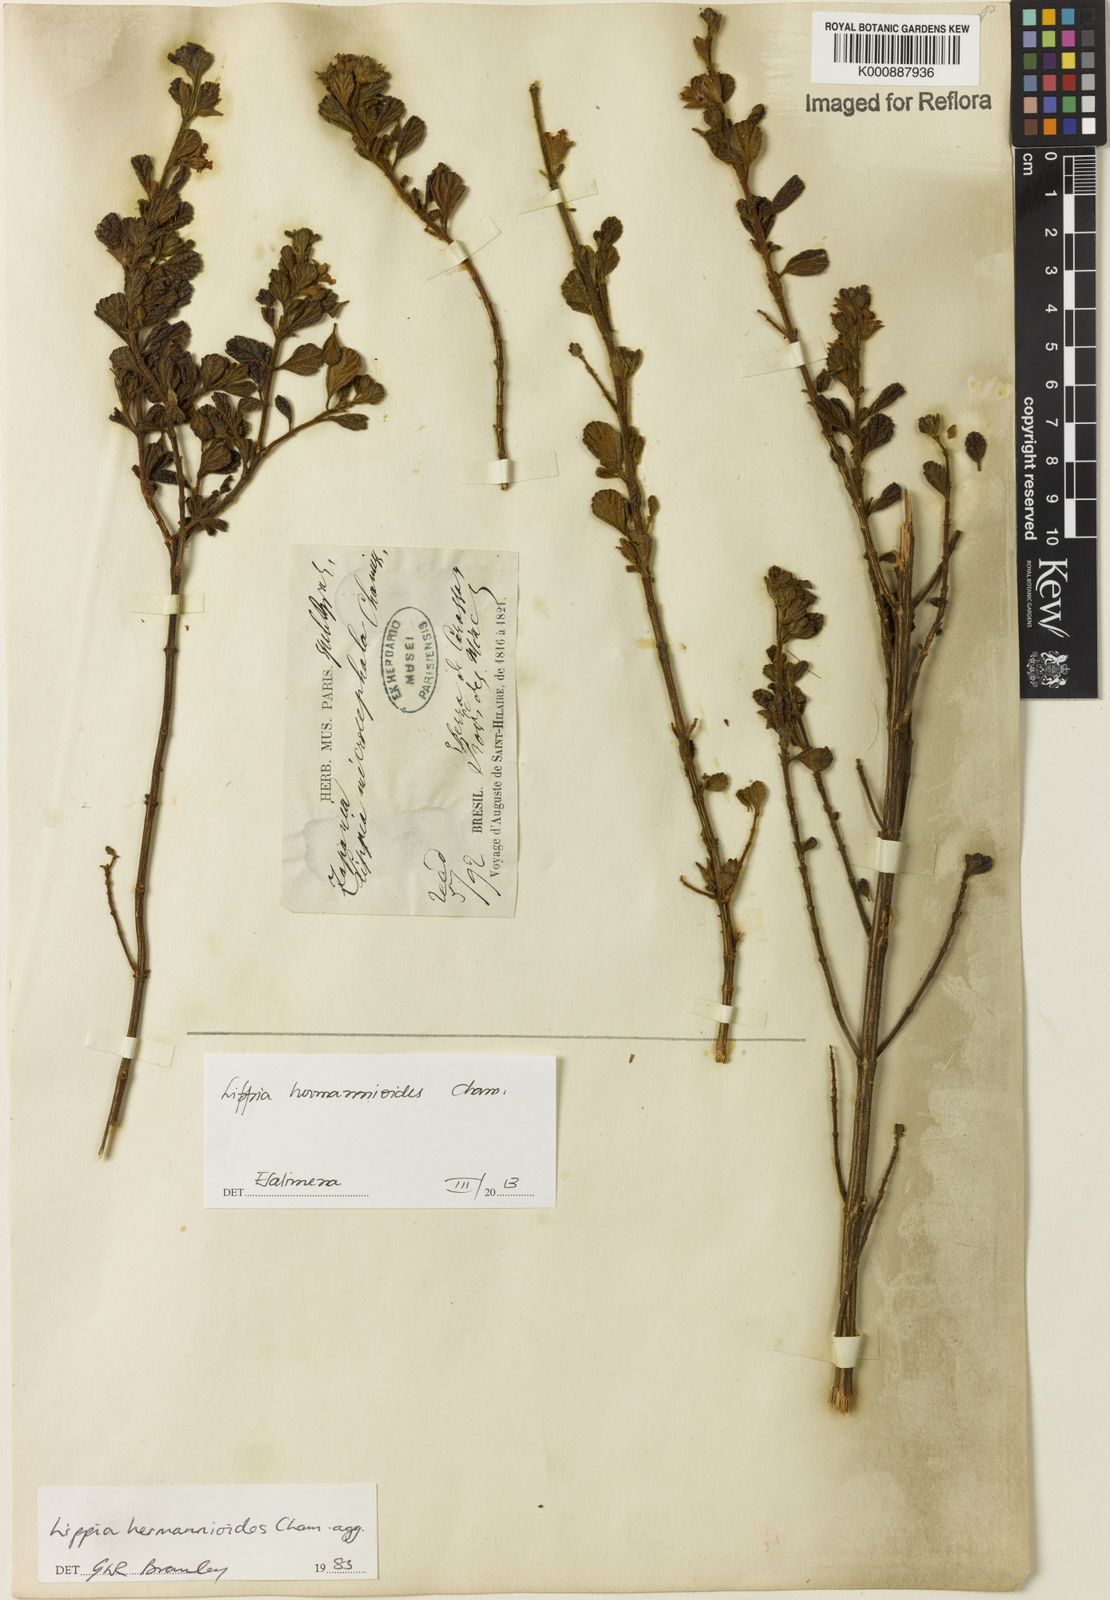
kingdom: Plantae
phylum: Tracheophyta
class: Magnoliopsida
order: Lamiales
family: Verbenaceae
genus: Lippia
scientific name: Lippia hermannioides
